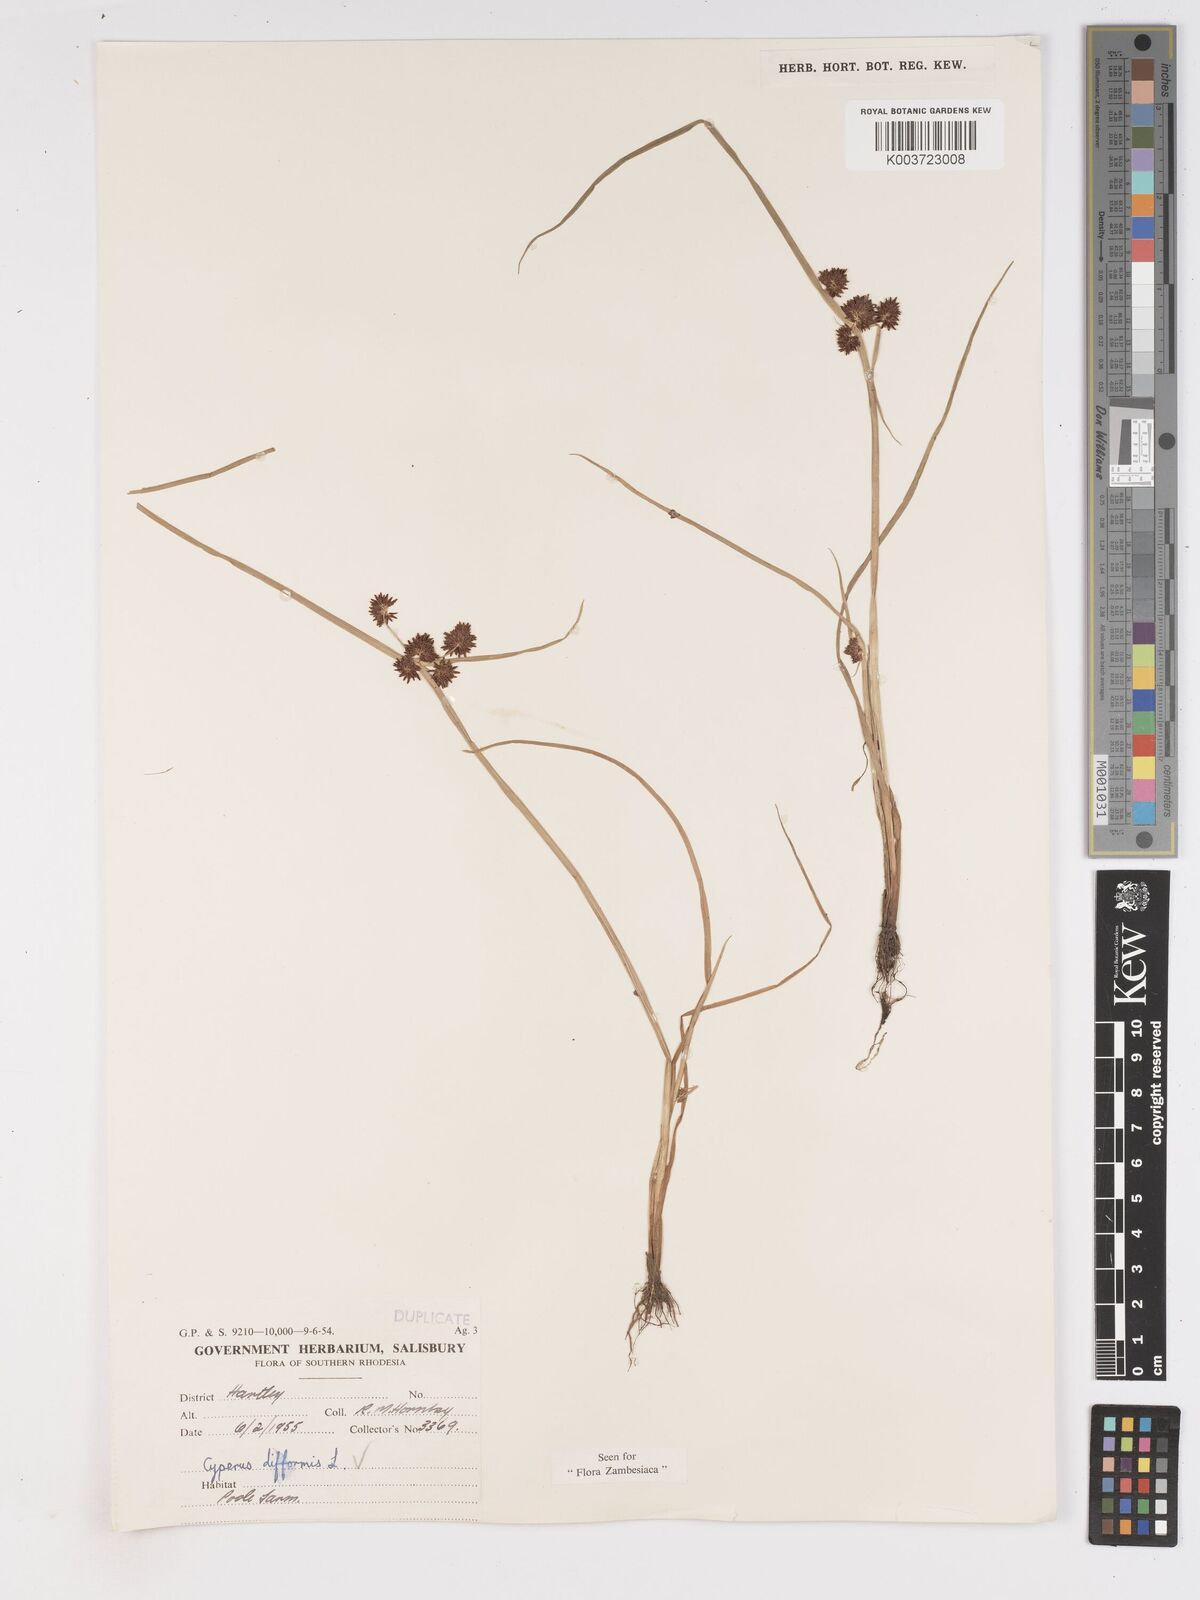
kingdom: Plantae
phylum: Tracheophyta
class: Liliopsida
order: Poales
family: Cyperaceae
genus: Cyperus
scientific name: Cyperus difformis
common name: Variable flatsedge
